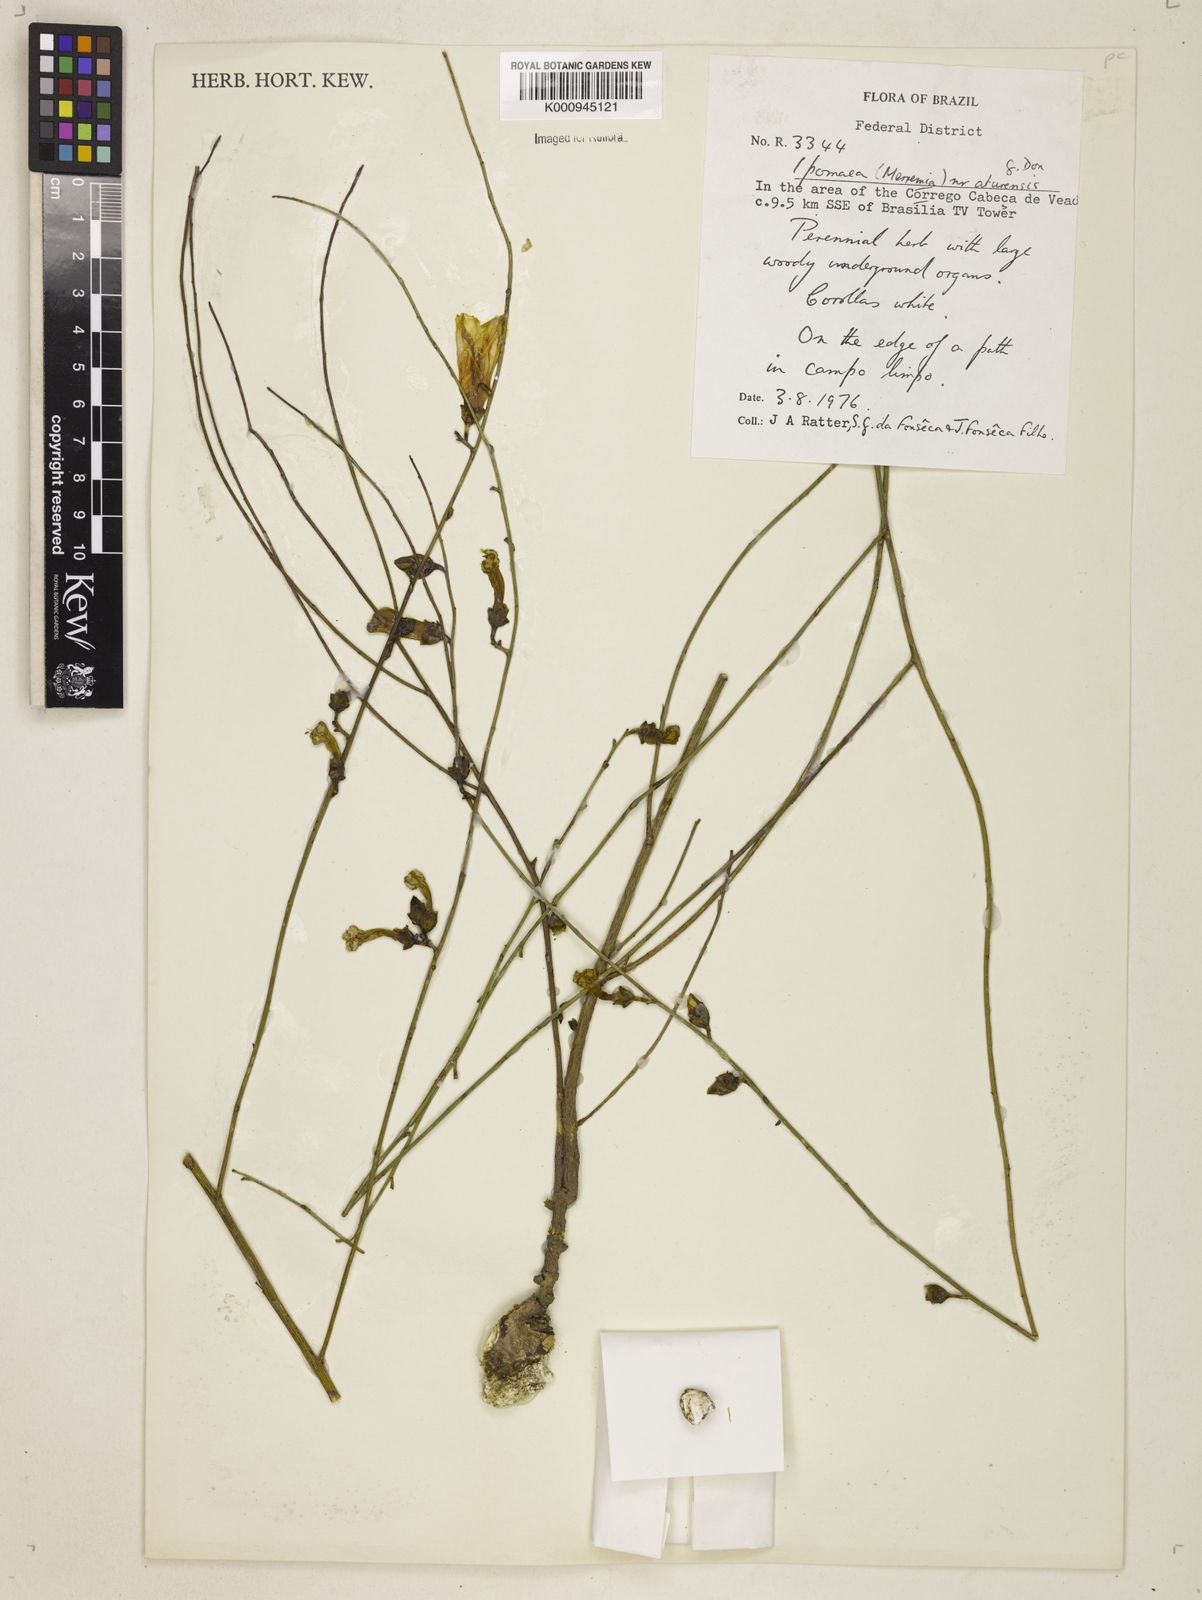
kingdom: Plantae
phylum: Tracheophyta
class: Magnoliopsida
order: Solanales
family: Convolvulaceae
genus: Distimake
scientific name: Distimake aturensis
